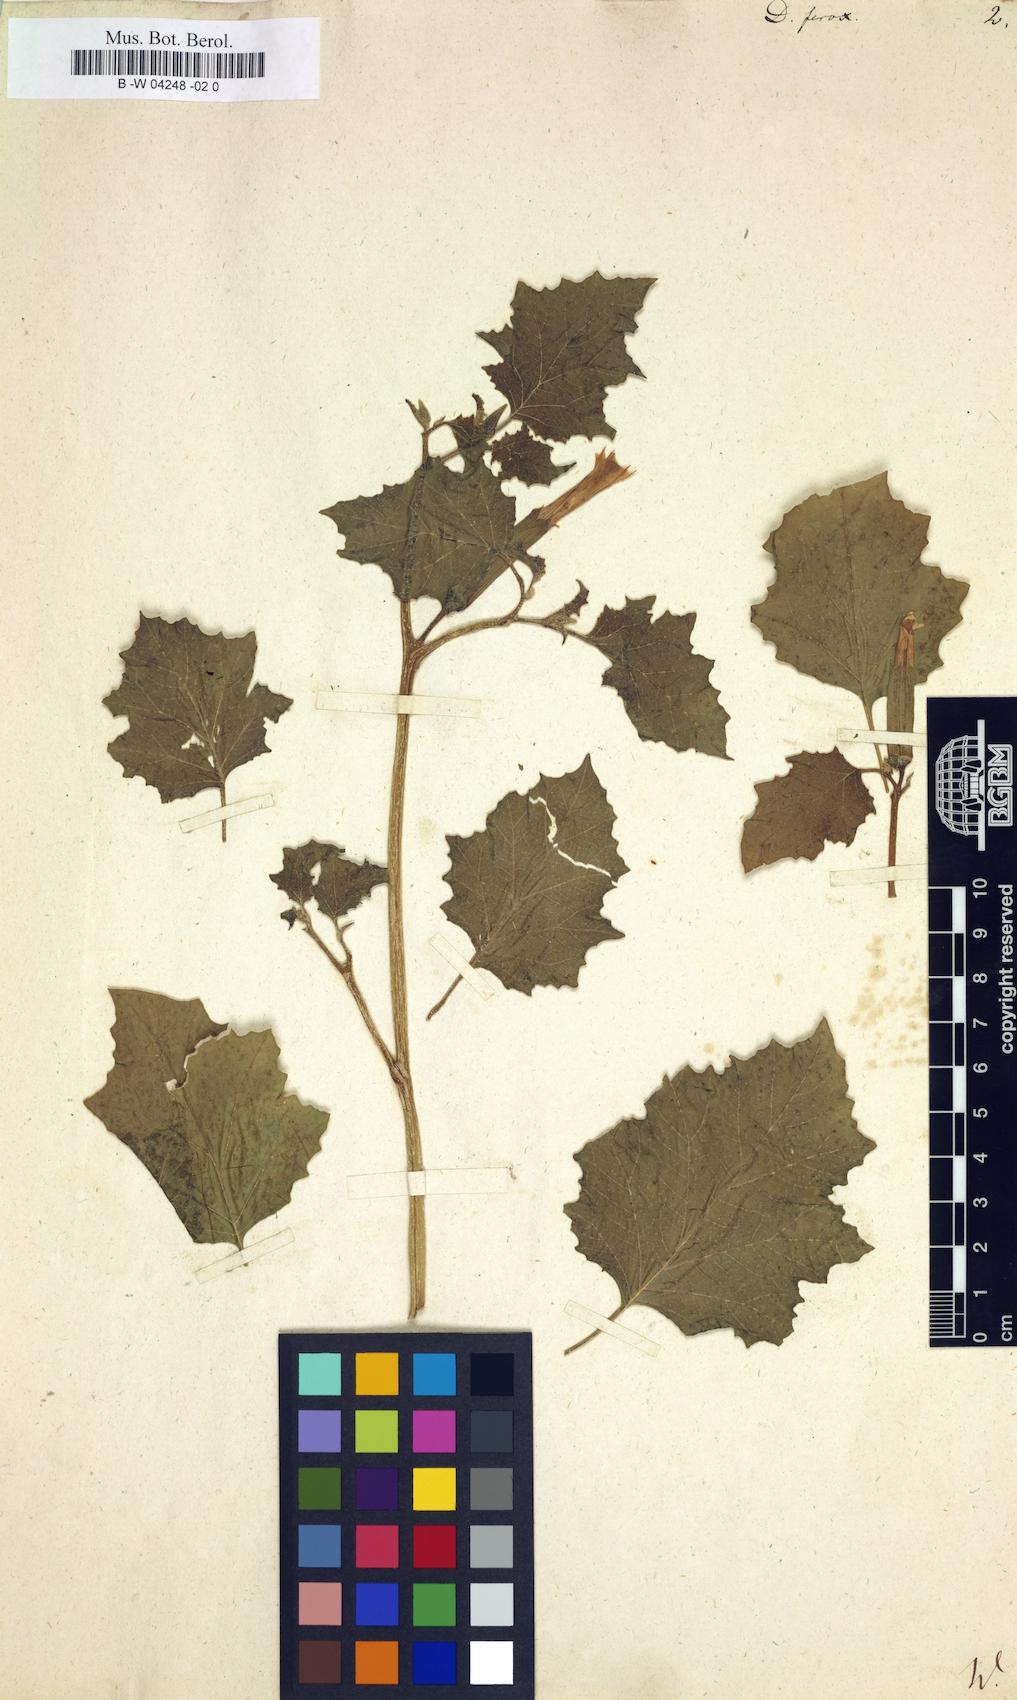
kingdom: Plantae
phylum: Tracheophyta
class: Magnoliopsida
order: Solanales
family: Solanaceae
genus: Datura
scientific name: Datura ferox
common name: Angel's-trumpets
